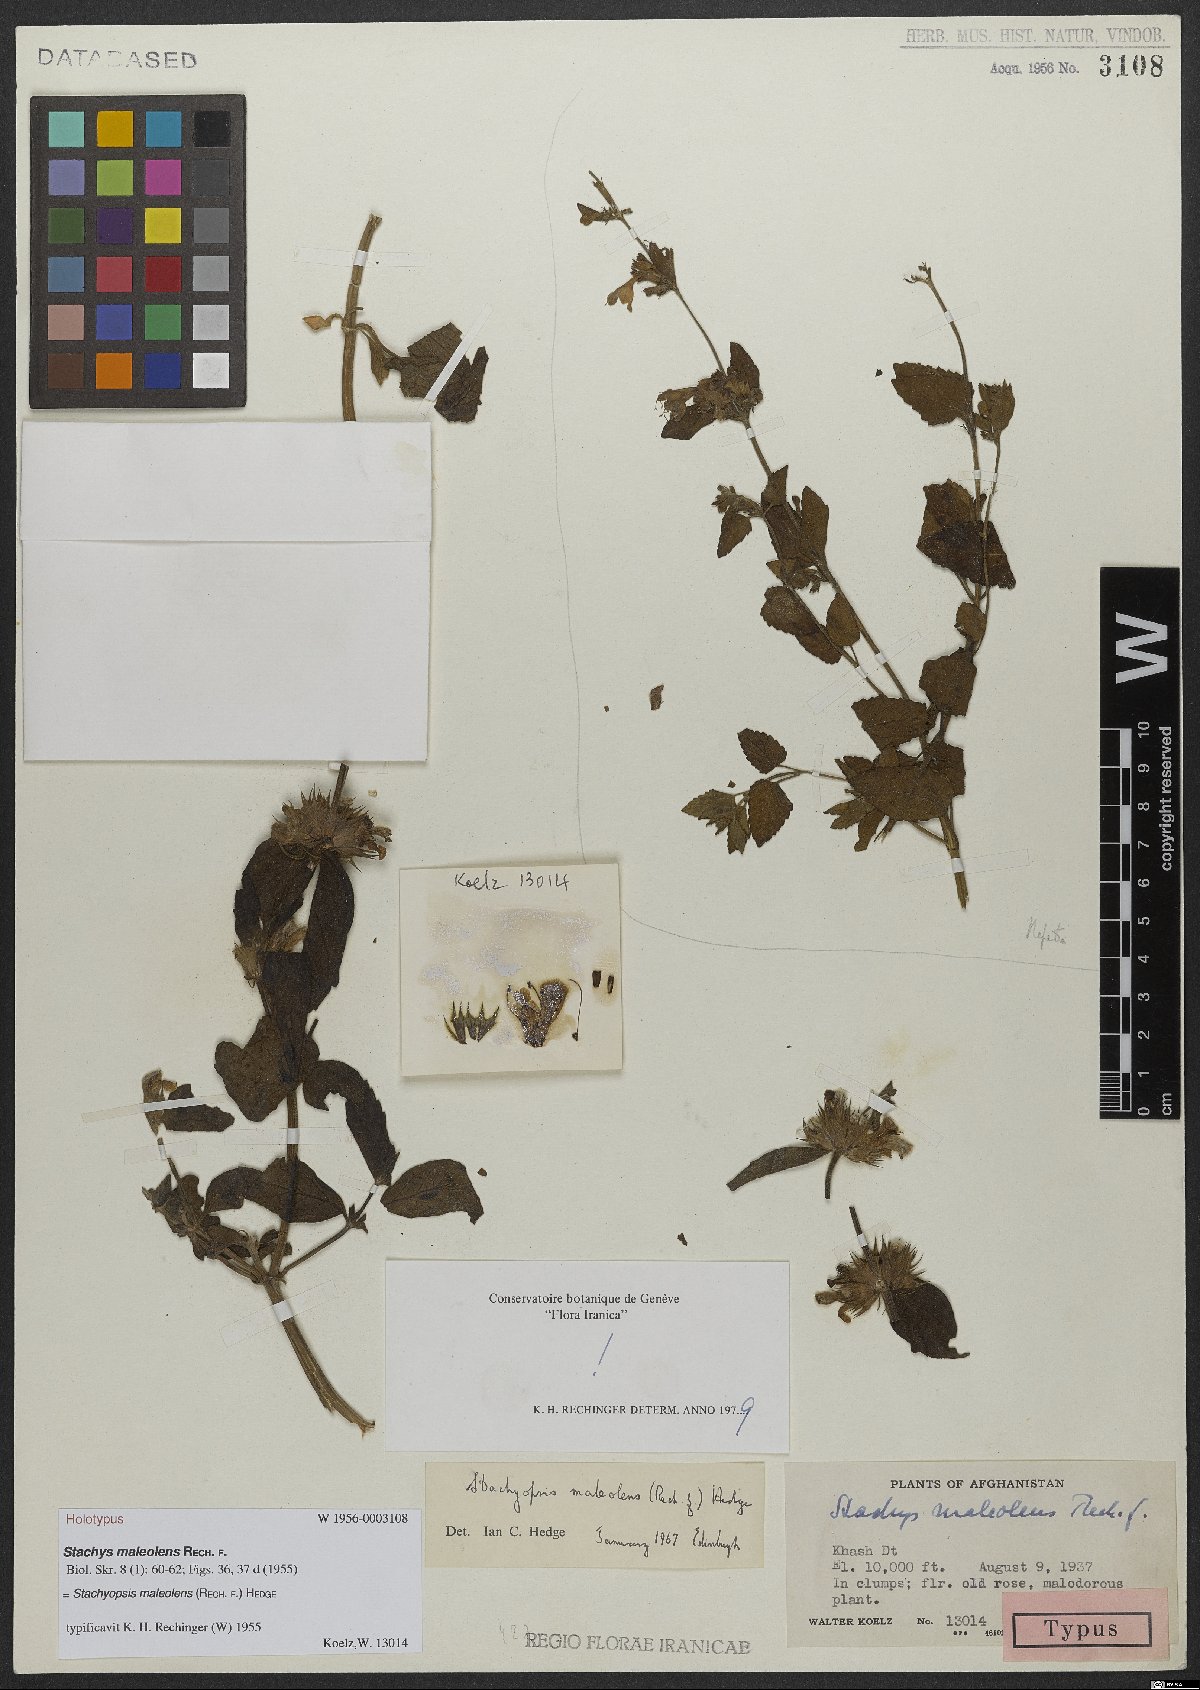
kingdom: Plantae
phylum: Tracheophyta
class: Magnoliopsida
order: Lamiales
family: Lamiaceae
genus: Eriophyton
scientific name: Eriophyton maleolens
